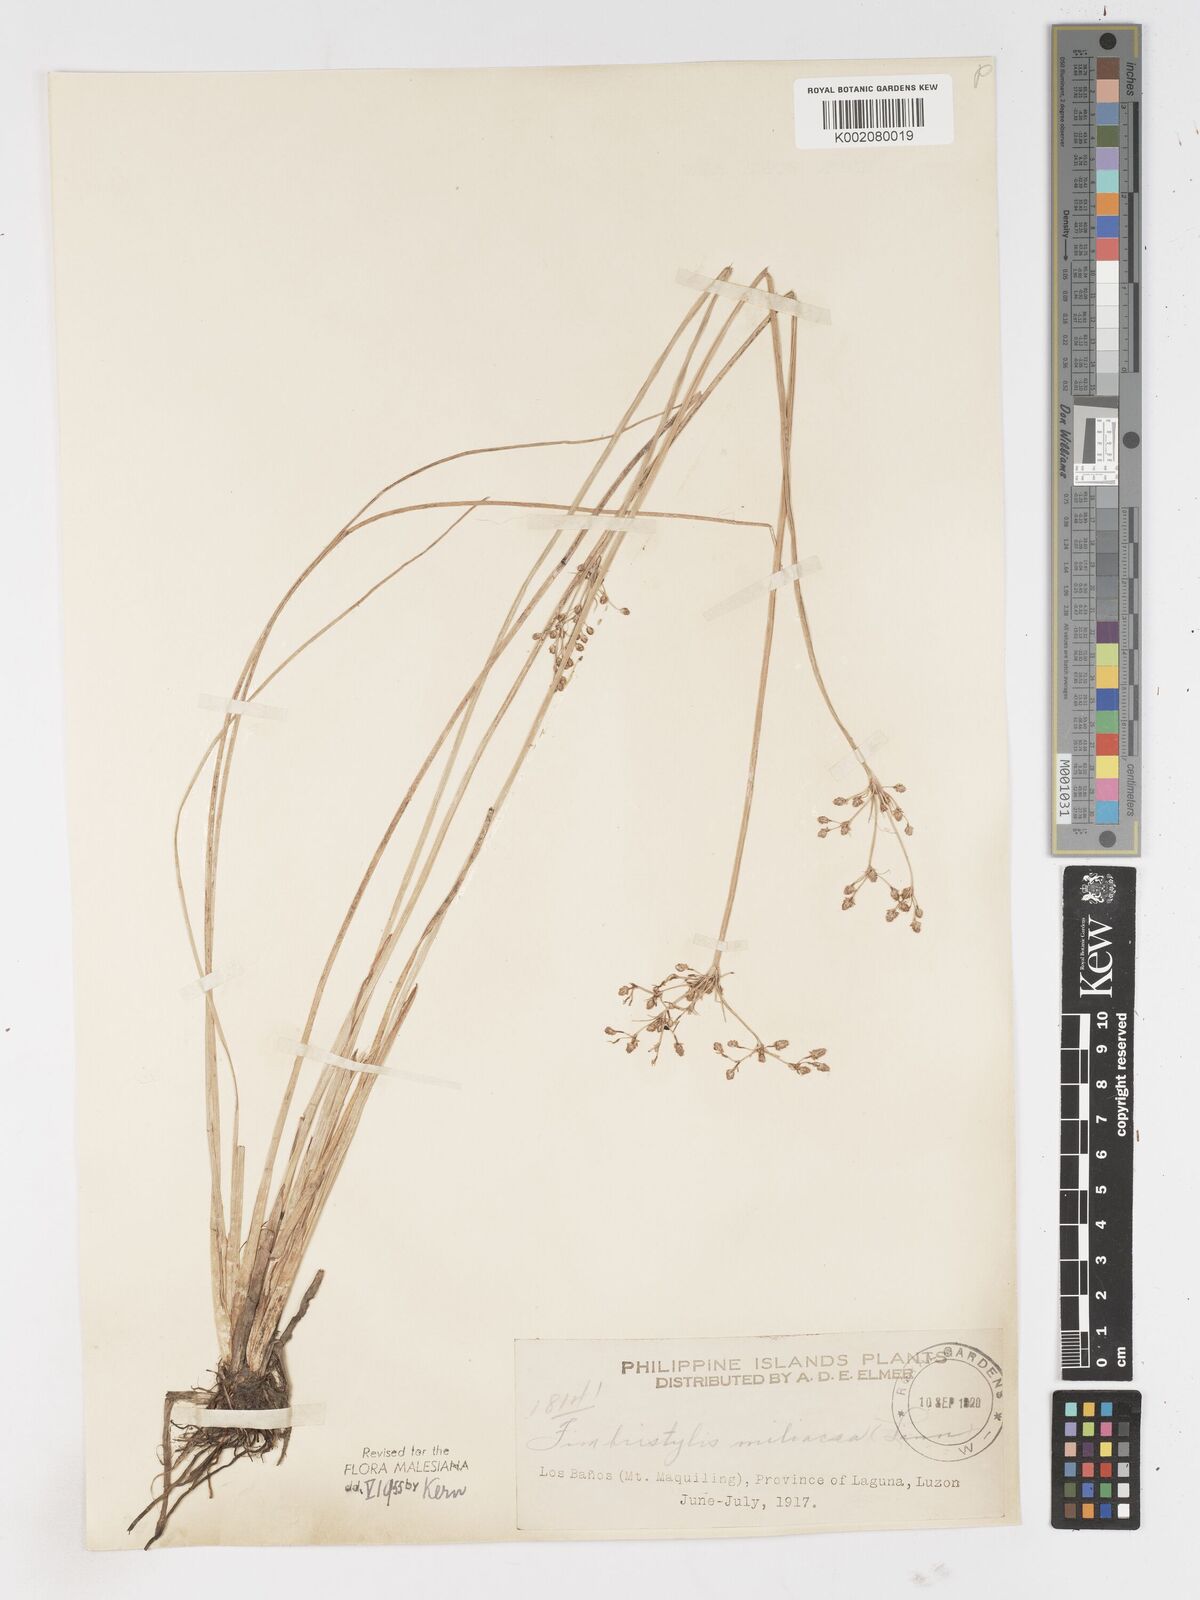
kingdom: Plantae
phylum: Tracheophyta
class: Liliopsida
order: Poales
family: Cyperaceae
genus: Fimbristylis
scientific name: Fimbristylis littoralis
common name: Fimbry
